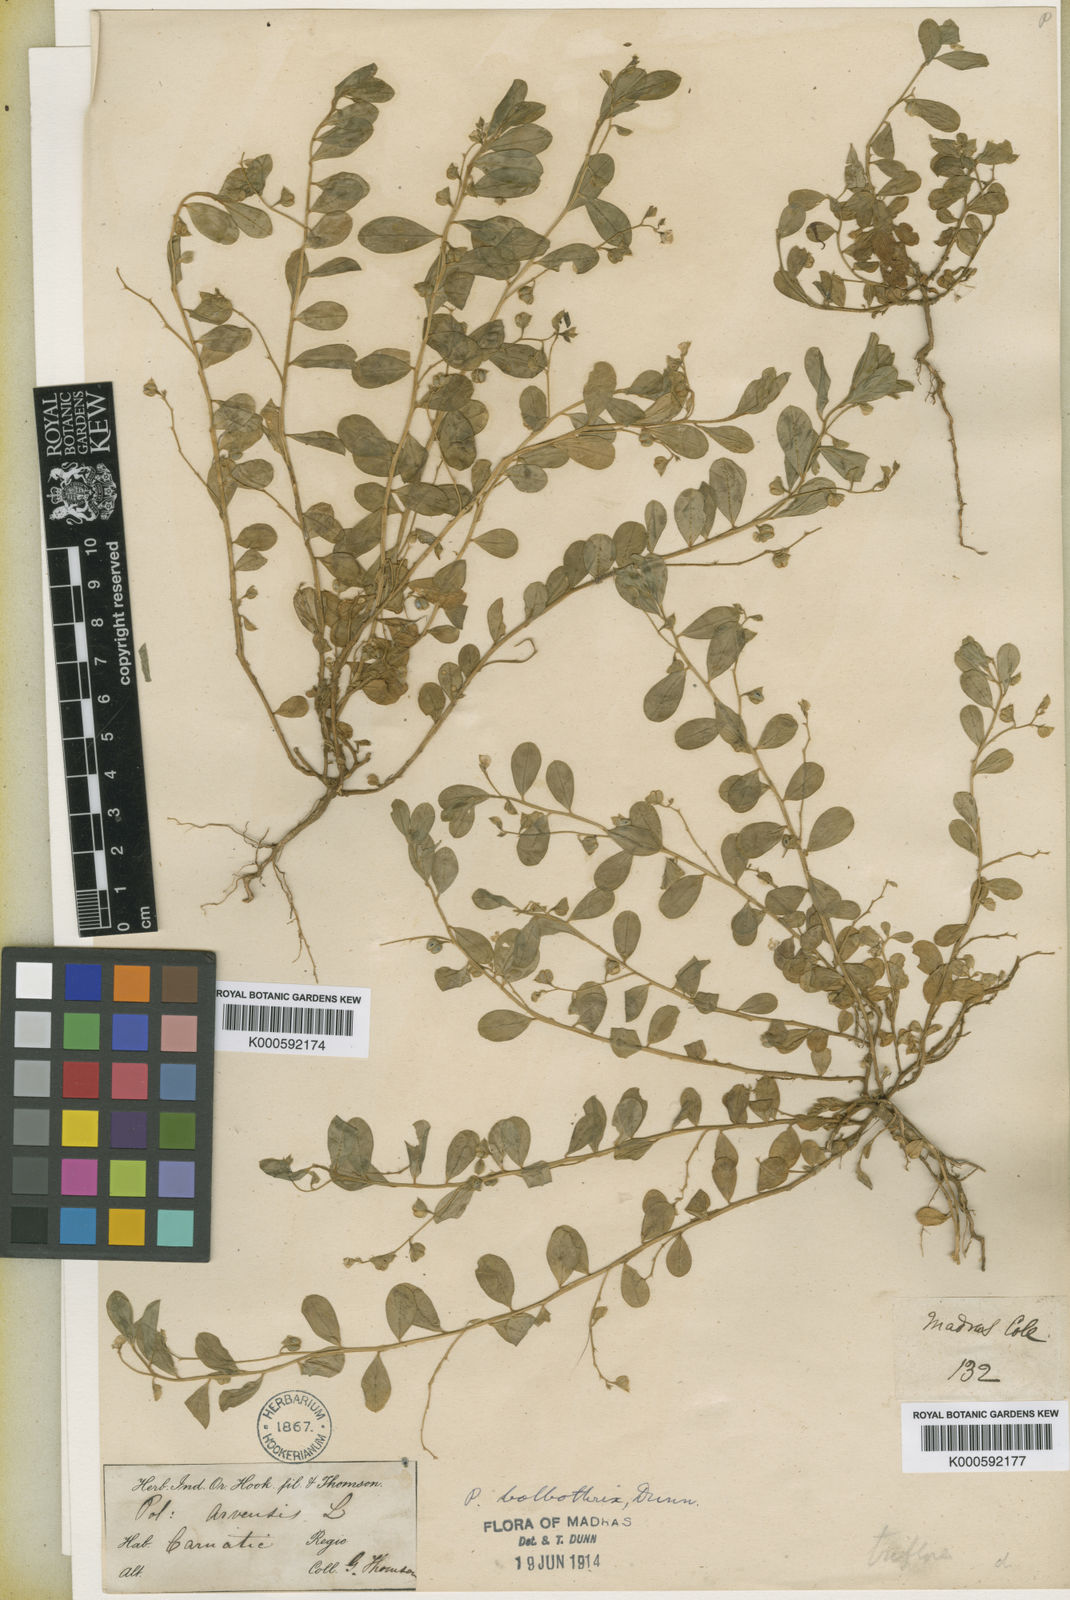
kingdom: Plantae
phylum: Tracheophyta
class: Magnoliopsida
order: Fabales
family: Polygalaceae
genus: Polygala
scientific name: Polygala bolbothrix
